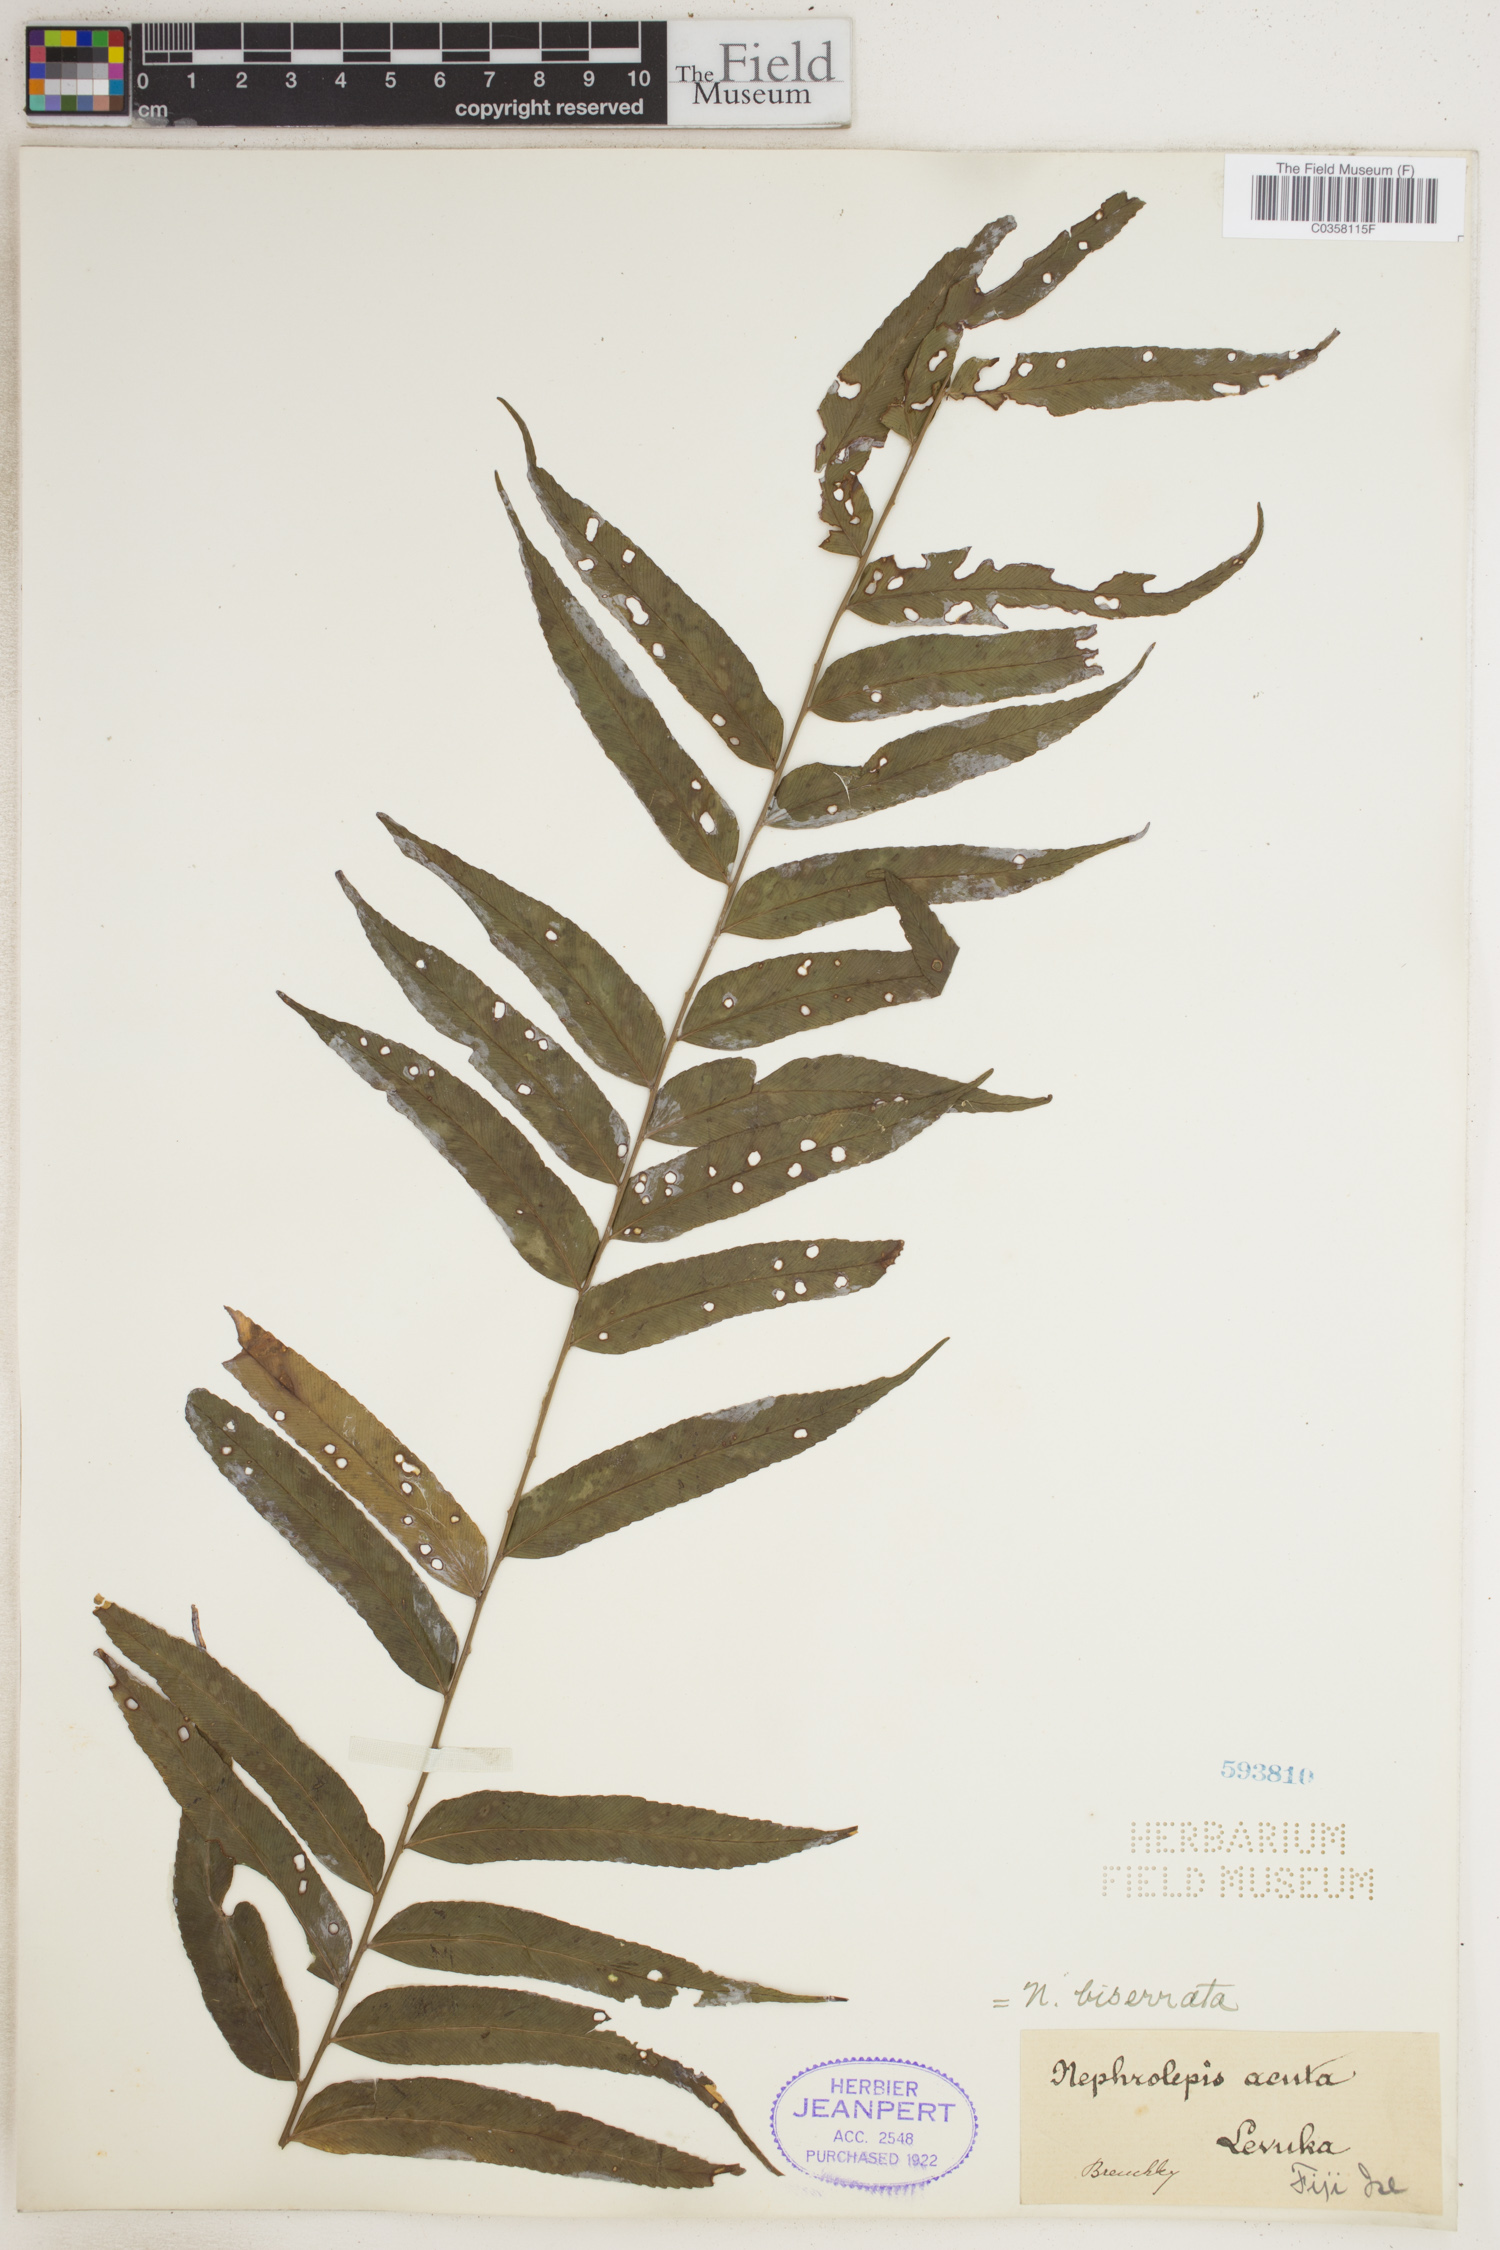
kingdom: Plantae
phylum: Tracheophyta
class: Polypodiopsida
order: Polypodiales
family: Nephrolepidaceae
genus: Nephrolepis
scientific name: Nephrolepis biserrata
